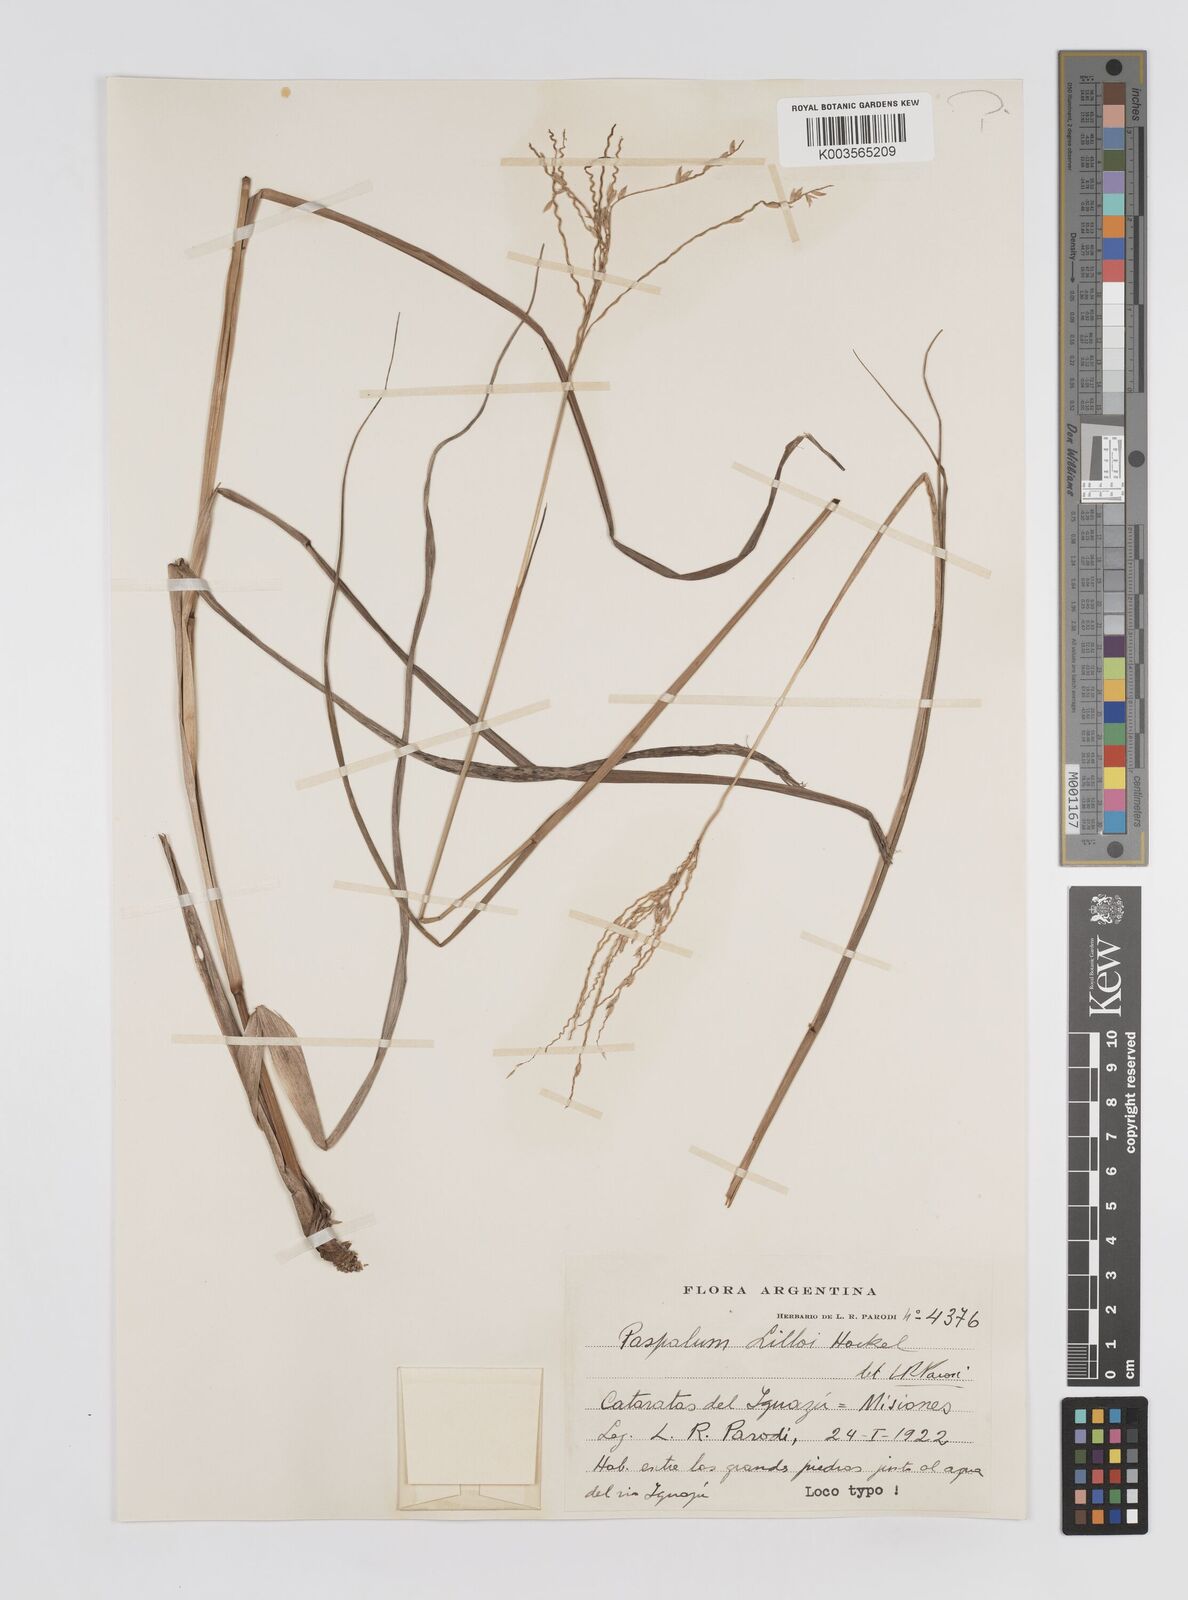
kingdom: Plantae
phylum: Tracheophyta
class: Liliopsida
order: Poales
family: Poaceae
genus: Paspalum
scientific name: Paspalum lilloi
